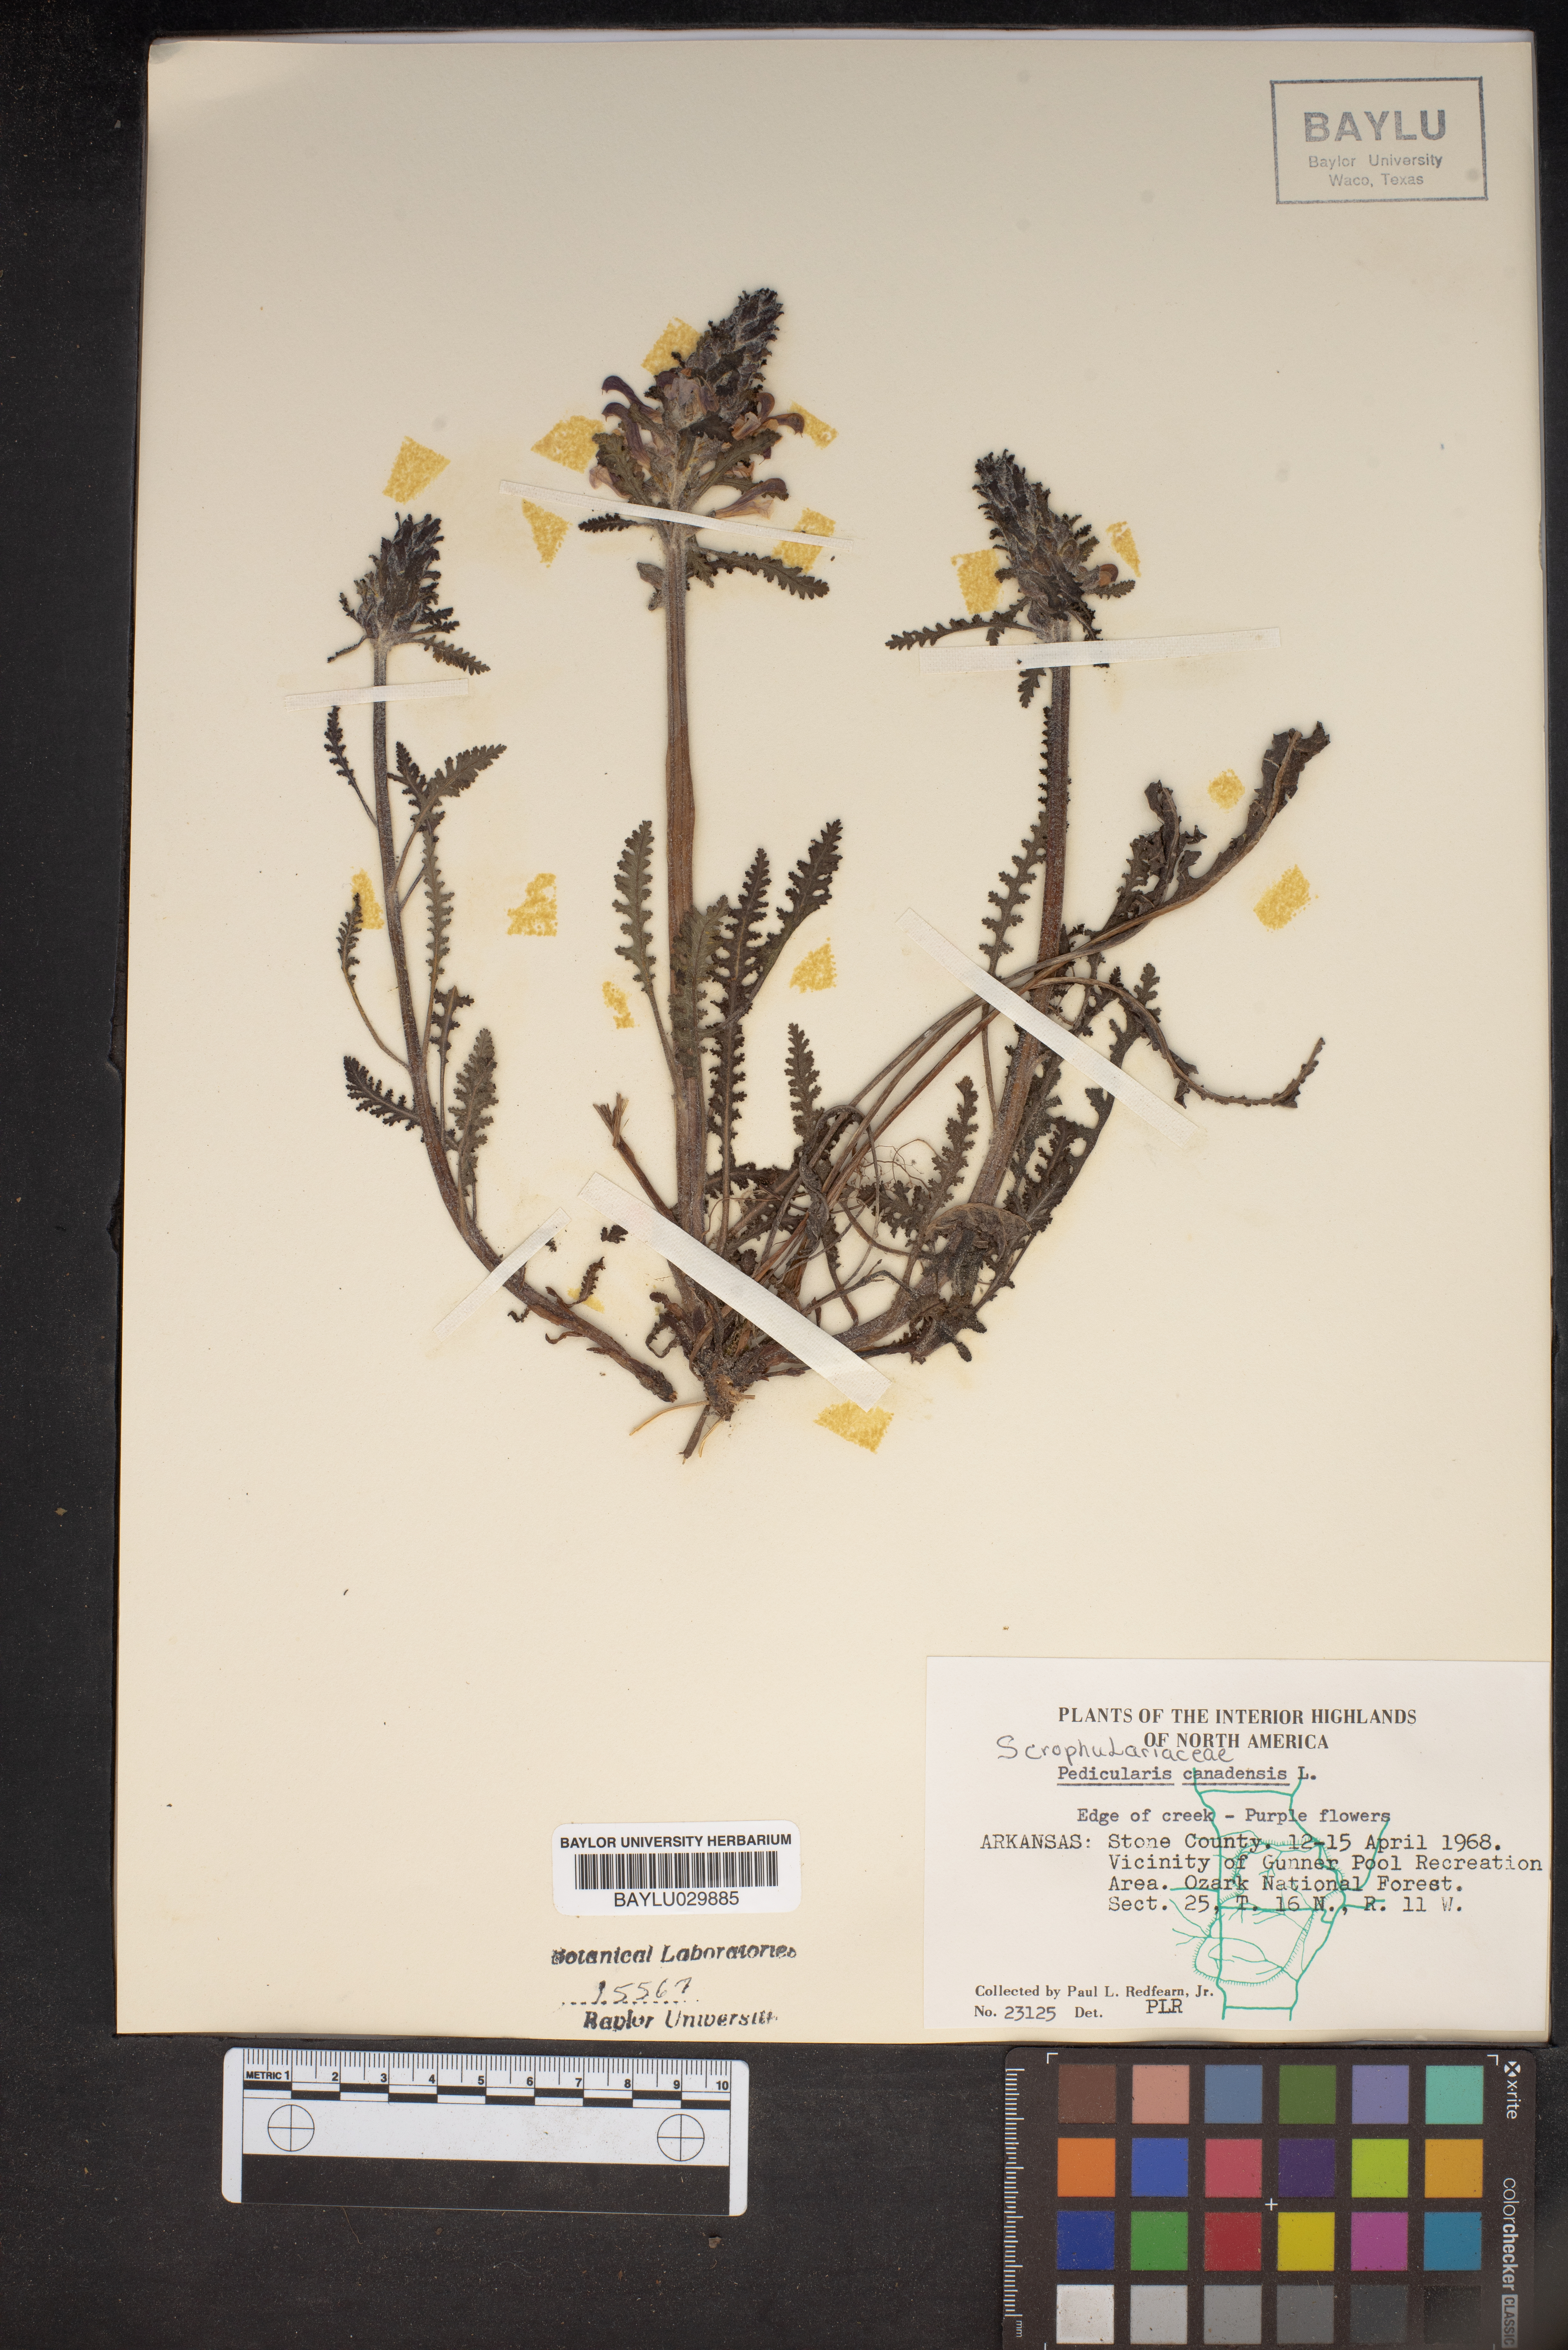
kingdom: Plantae
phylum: Tracheophyta
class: Magnoliopsida
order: Lamiales
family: Orobanchaceae
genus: Pedicularis
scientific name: Pedicularis canadensis
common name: Early lousewort
